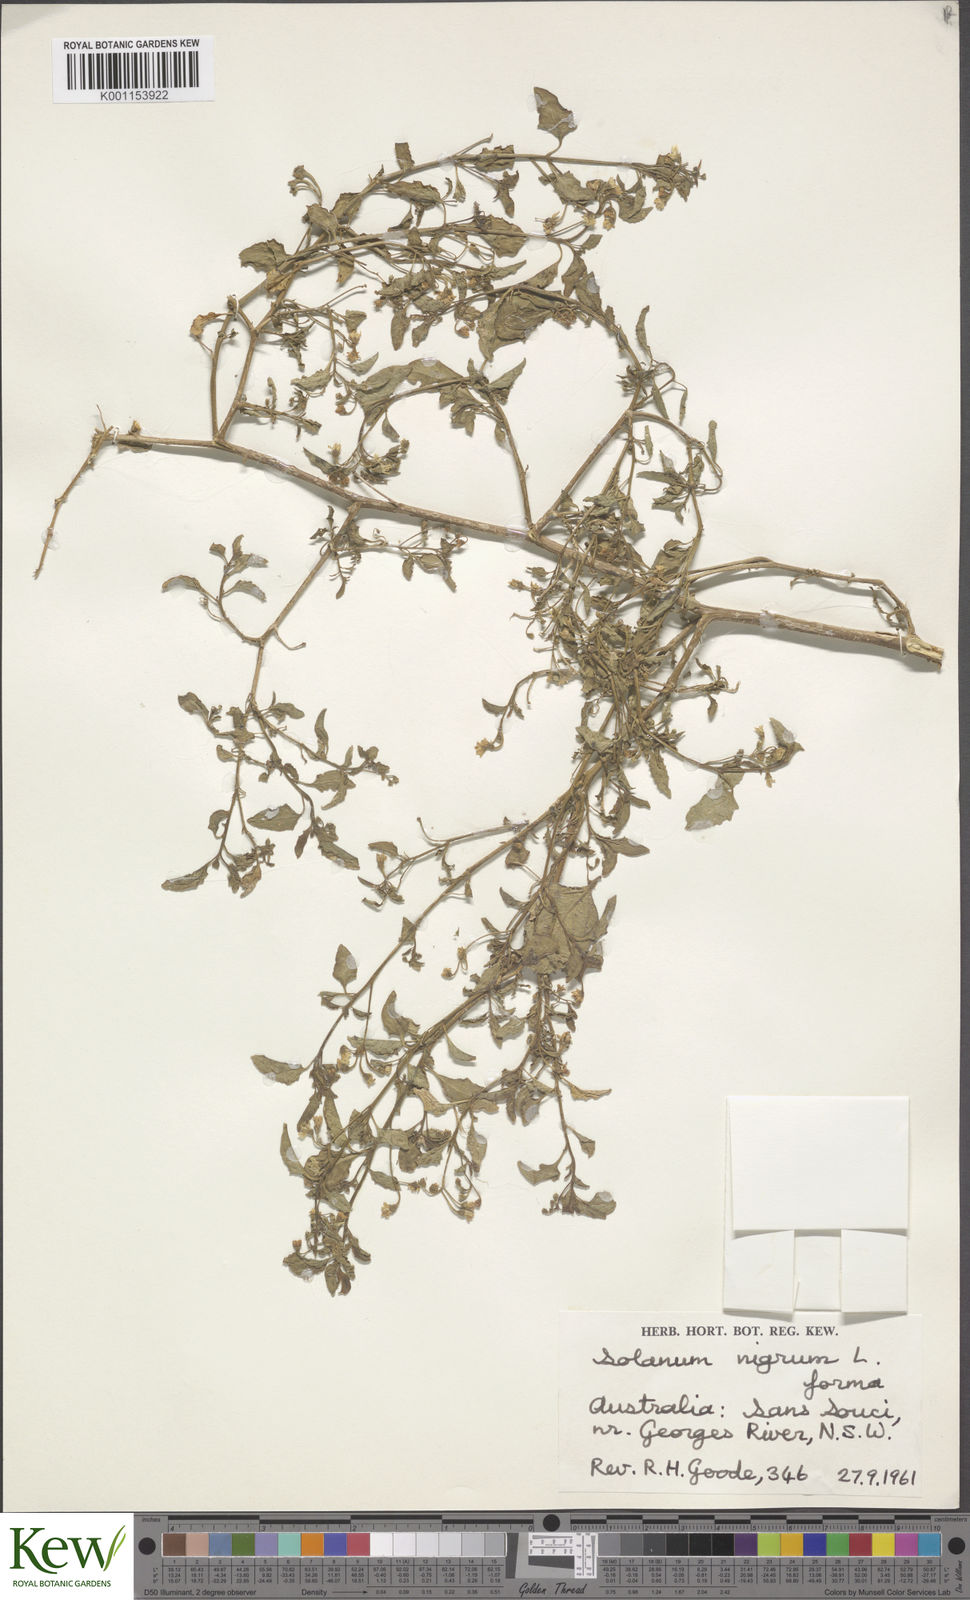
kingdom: Plantae
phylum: Tracheophyta
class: Magnoliopsida
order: Solanales
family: Solanaceae
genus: Solanum
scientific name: Solanum nigrum
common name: Black nightshade
